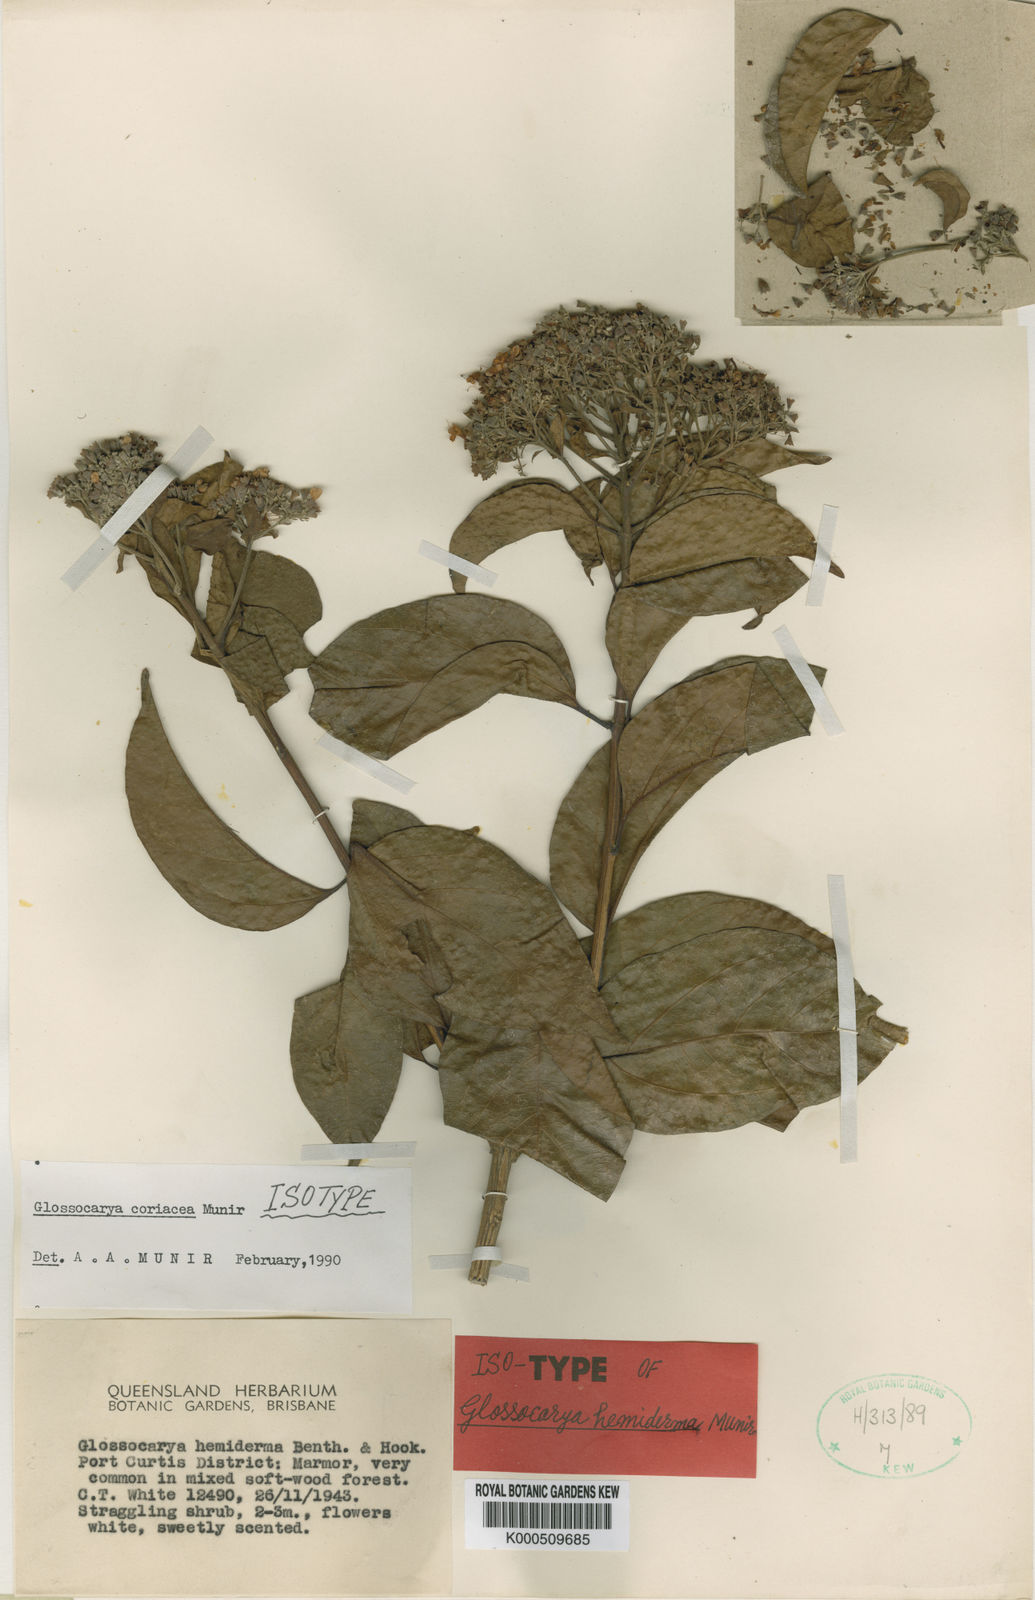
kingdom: Plantae
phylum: Tracheophyta
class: Magnoliopsida
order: Lamiales
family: Lamiaceae
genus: Glossocarya
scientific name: Glossocarya coriacea
